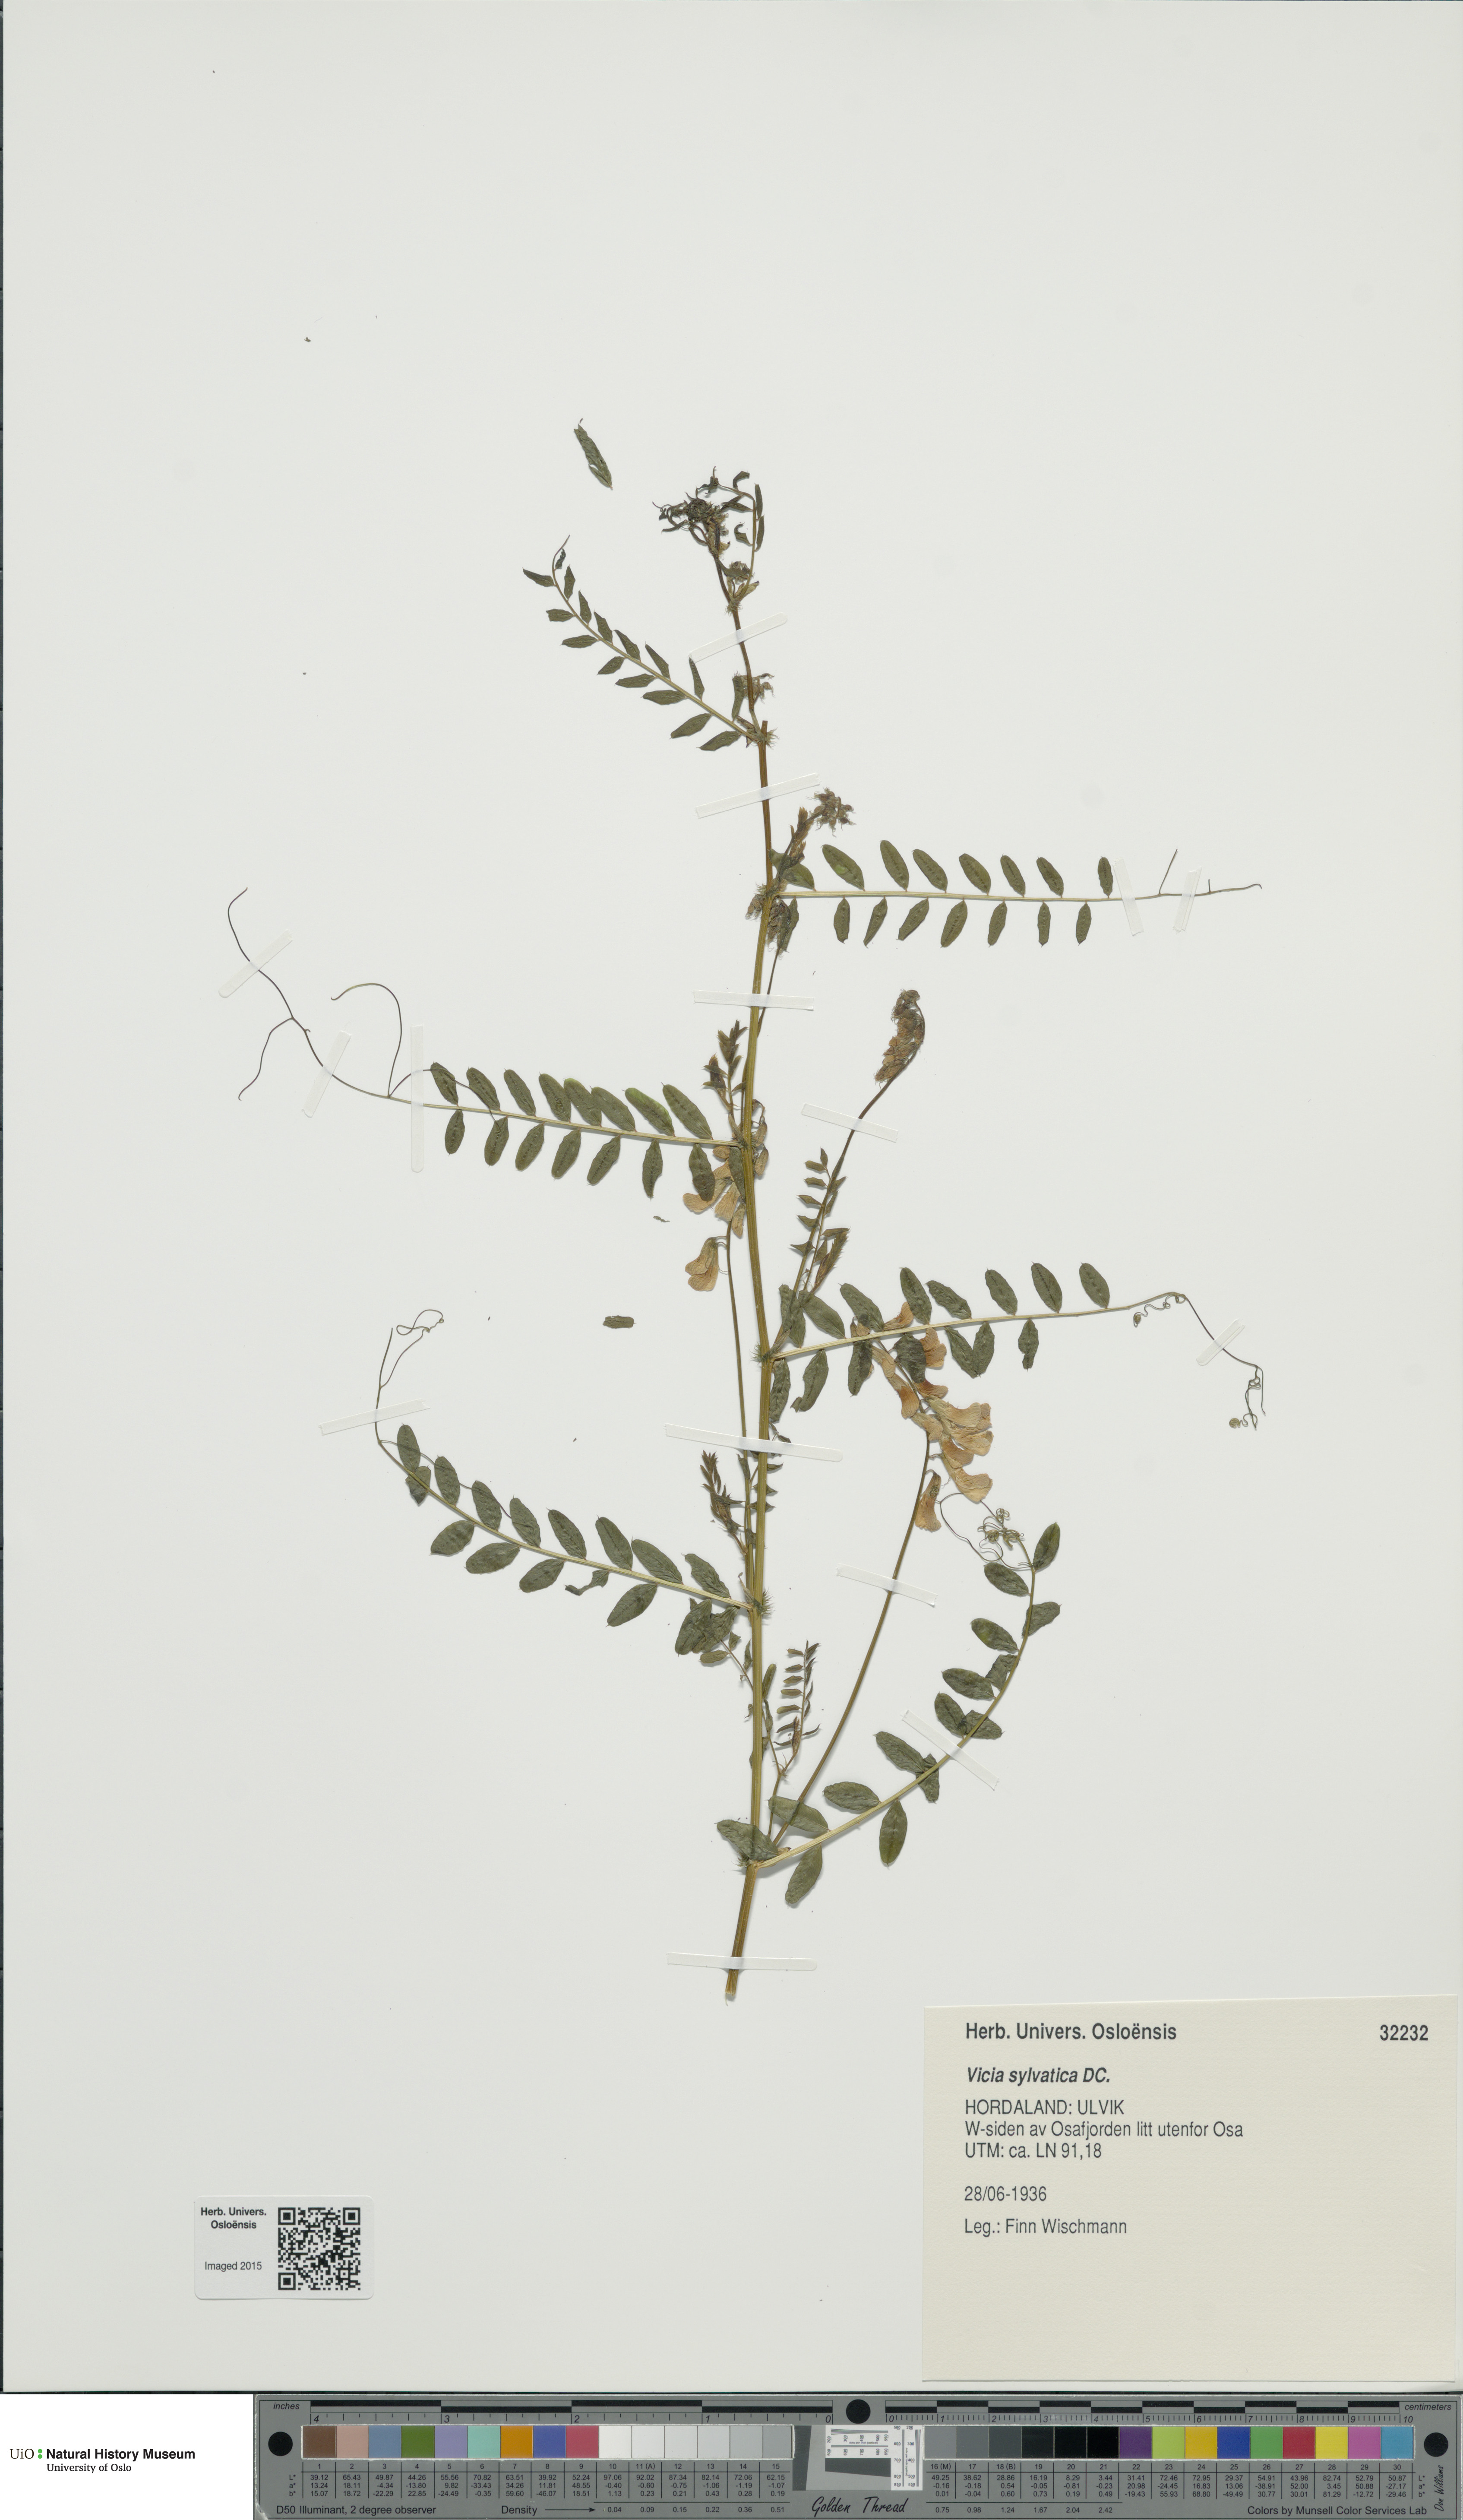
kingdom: Plantae
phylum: Tracheophyta
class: Magnoliopsida
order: Fabales
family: Fabaceae
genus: Vicia
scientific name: Vicia sylvatica
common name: Wood vetch
